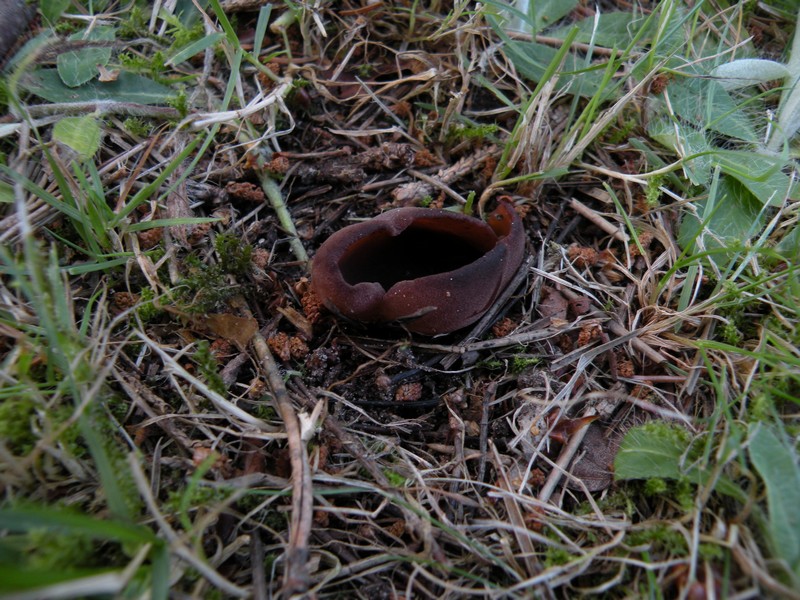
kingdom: Fungi
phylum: Ascomycota
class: Pezizomycetes
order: Pezizales
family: Pezizaceae
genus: Legaliana
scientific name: Legaliana badia
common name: leverbrun bægersvamp
